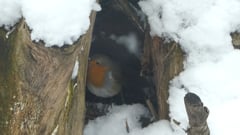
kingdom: Animalia
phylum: Chordata
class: Aves
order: Passeriformes
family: Muscicapidae
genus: Erithacus
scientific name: Erithacus rubecula
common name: European robin
